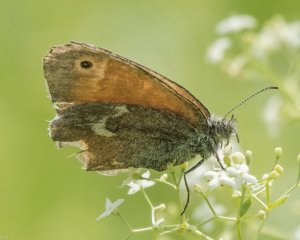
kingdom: Animalia
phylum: Arthropoda
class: Insecta
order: Lepidoptera
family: Nymphalidae
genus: Coenonympha
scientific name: Coenonympha tullia
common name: Large Heath
